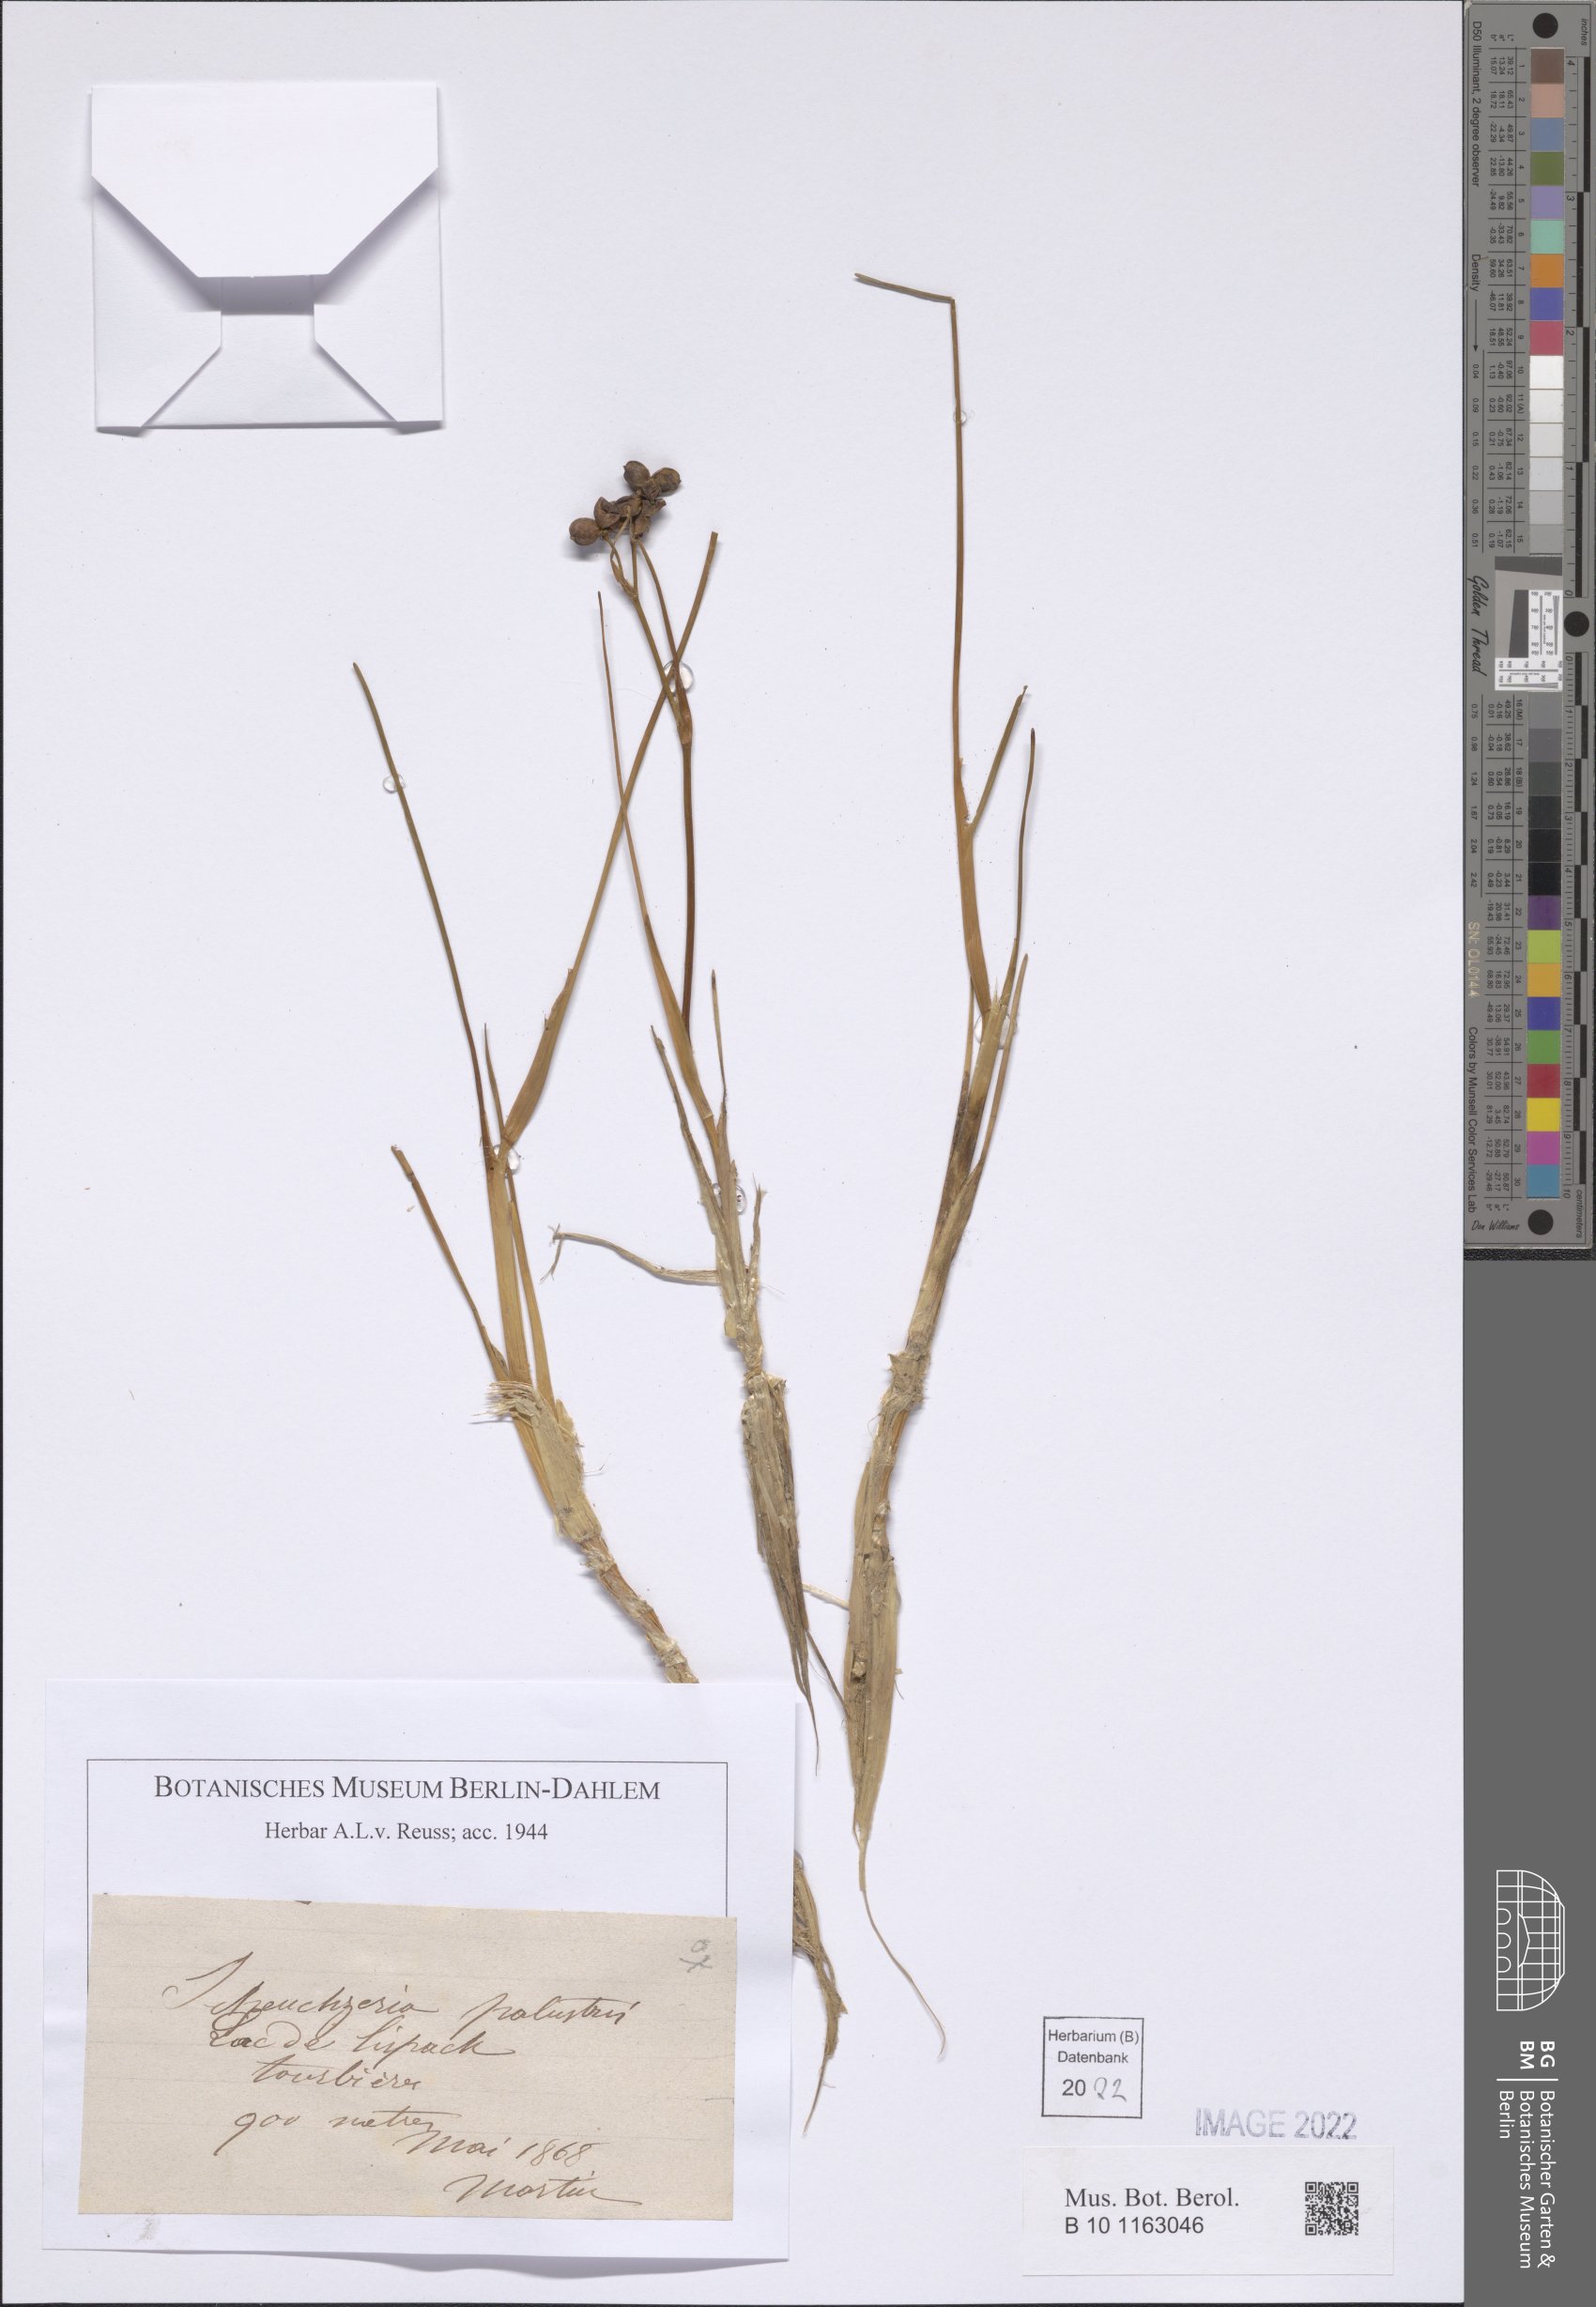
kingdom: Plantae
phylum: Tracheophyta
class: Liliopsida
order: Alismatales
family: Scheuchzeriaceae
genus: Scheuchzeria
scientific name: Scheuchzeria palustris
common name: Rannoch-rush
